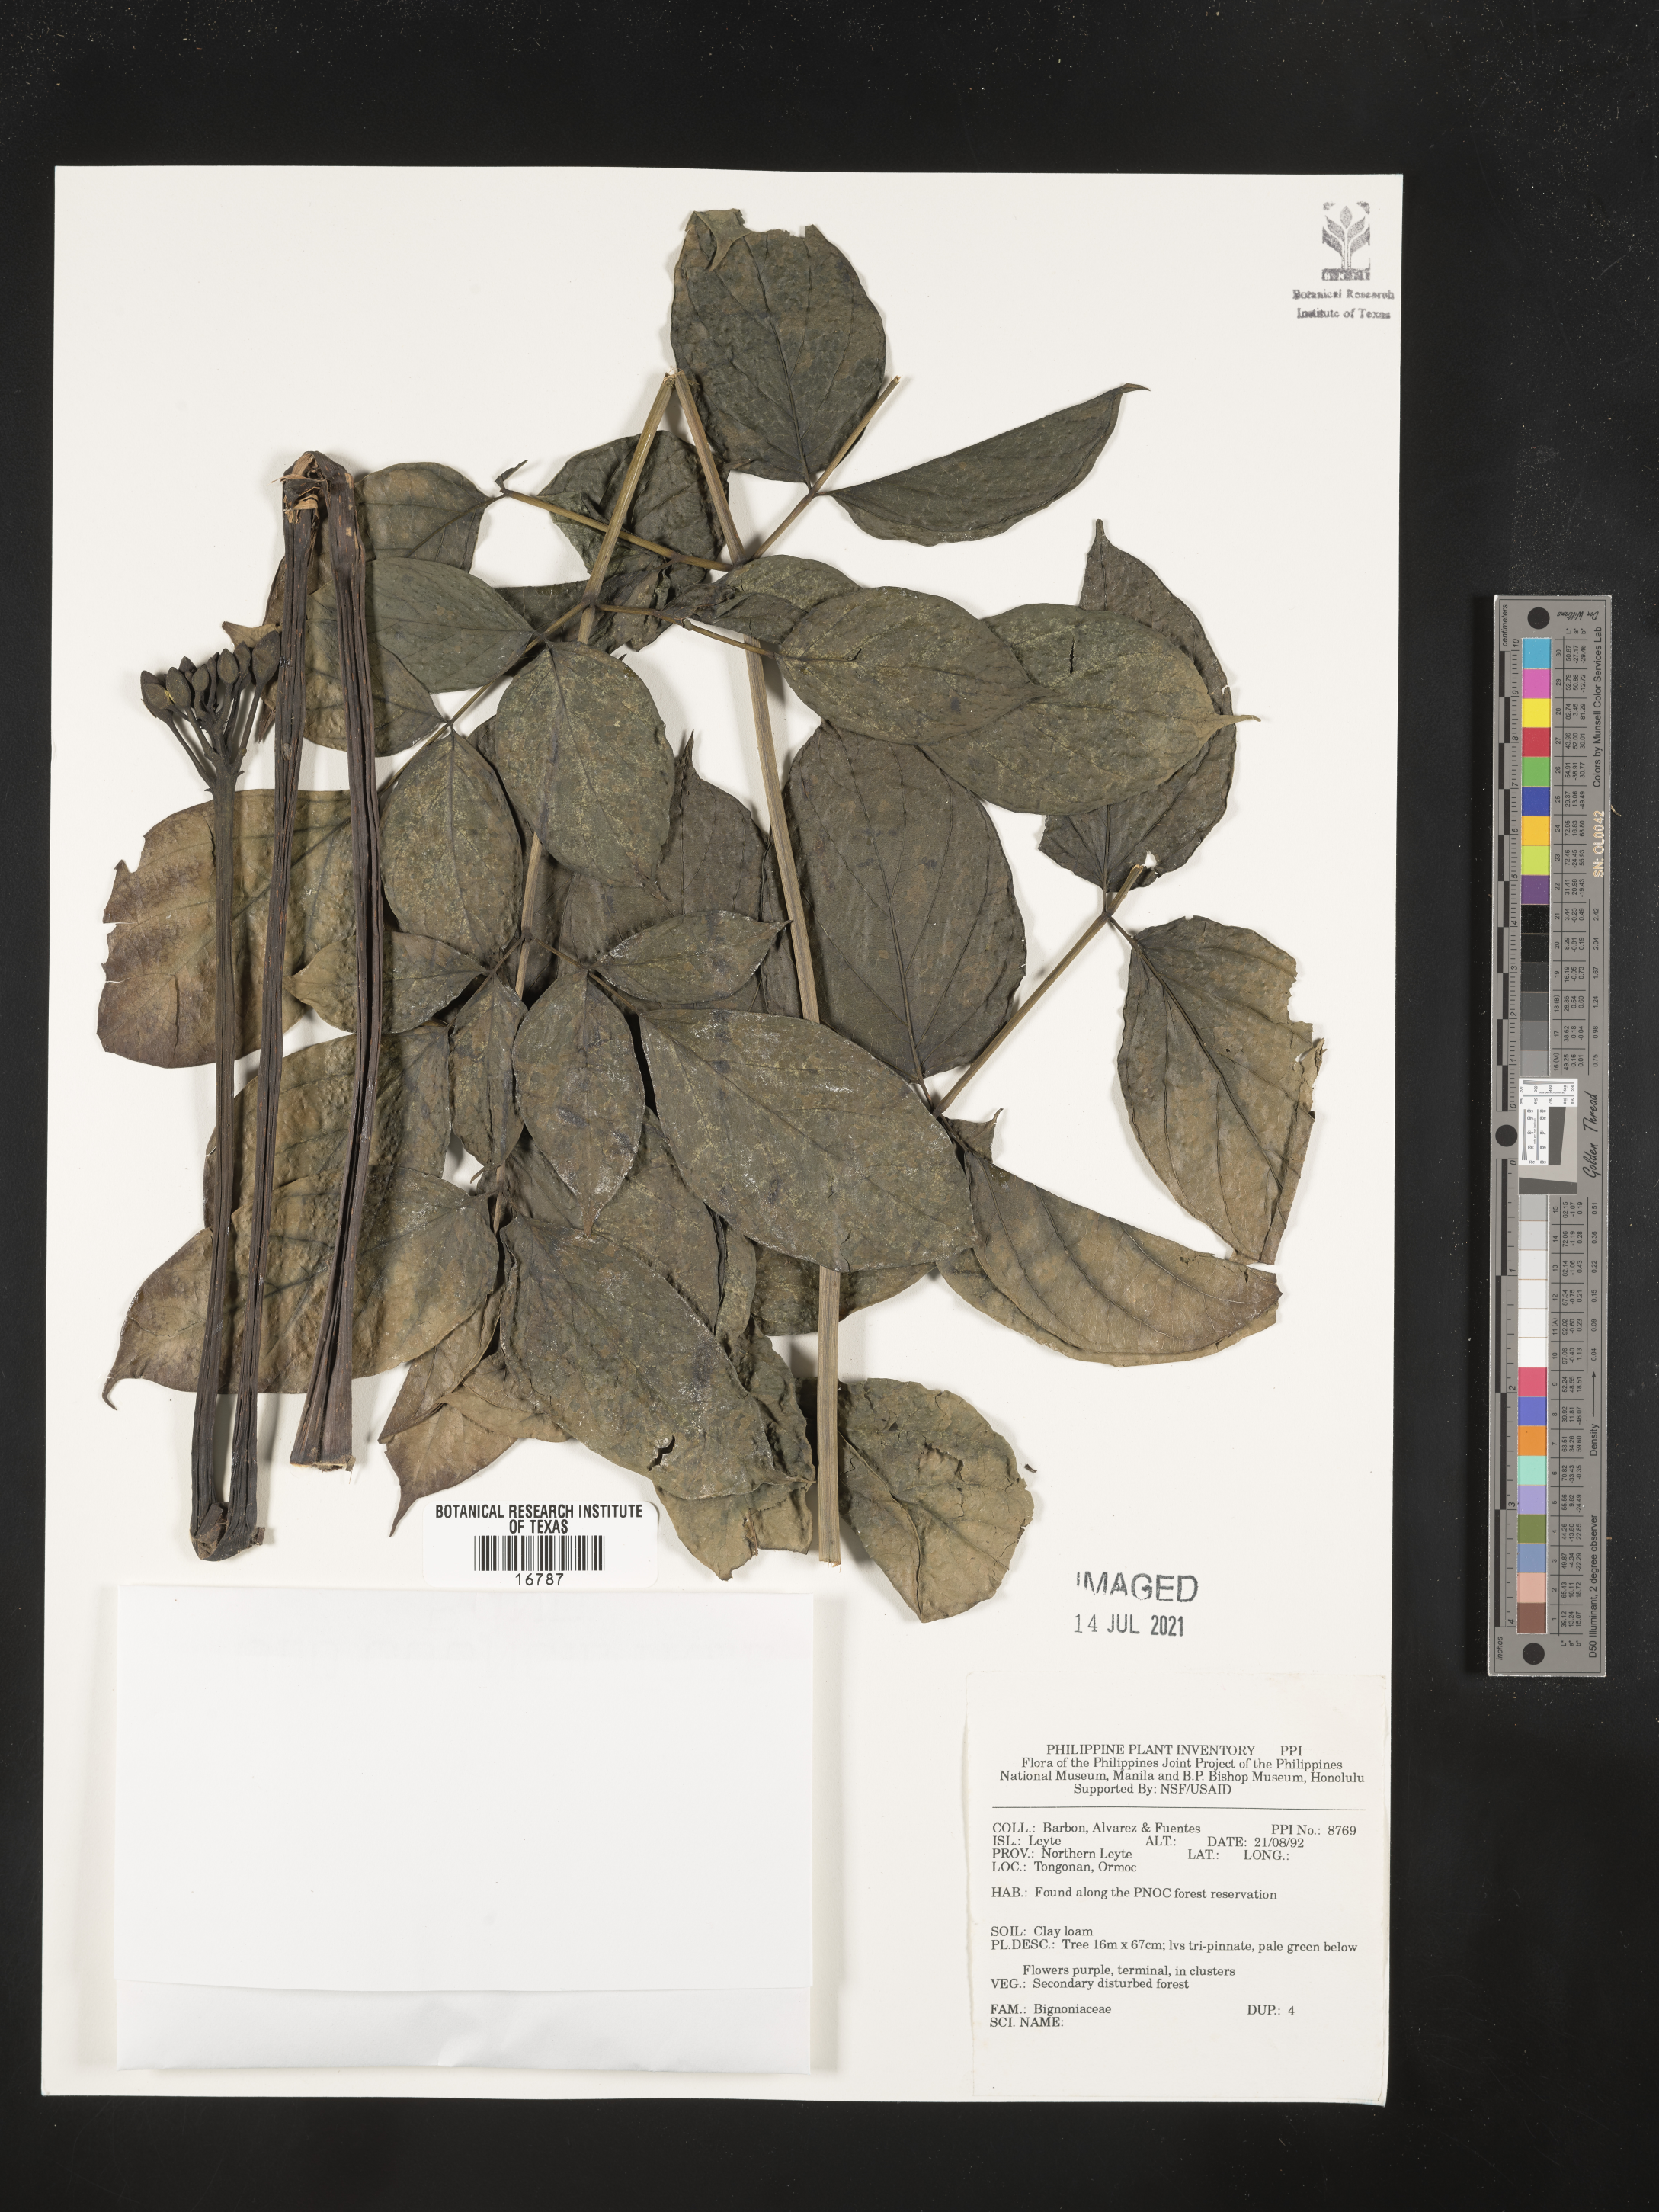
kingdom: Plantae
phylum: Tracheophyta
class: Magnoliopsida
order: Lamiales
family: Bignoniaceae
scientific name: Bignoniaceae
